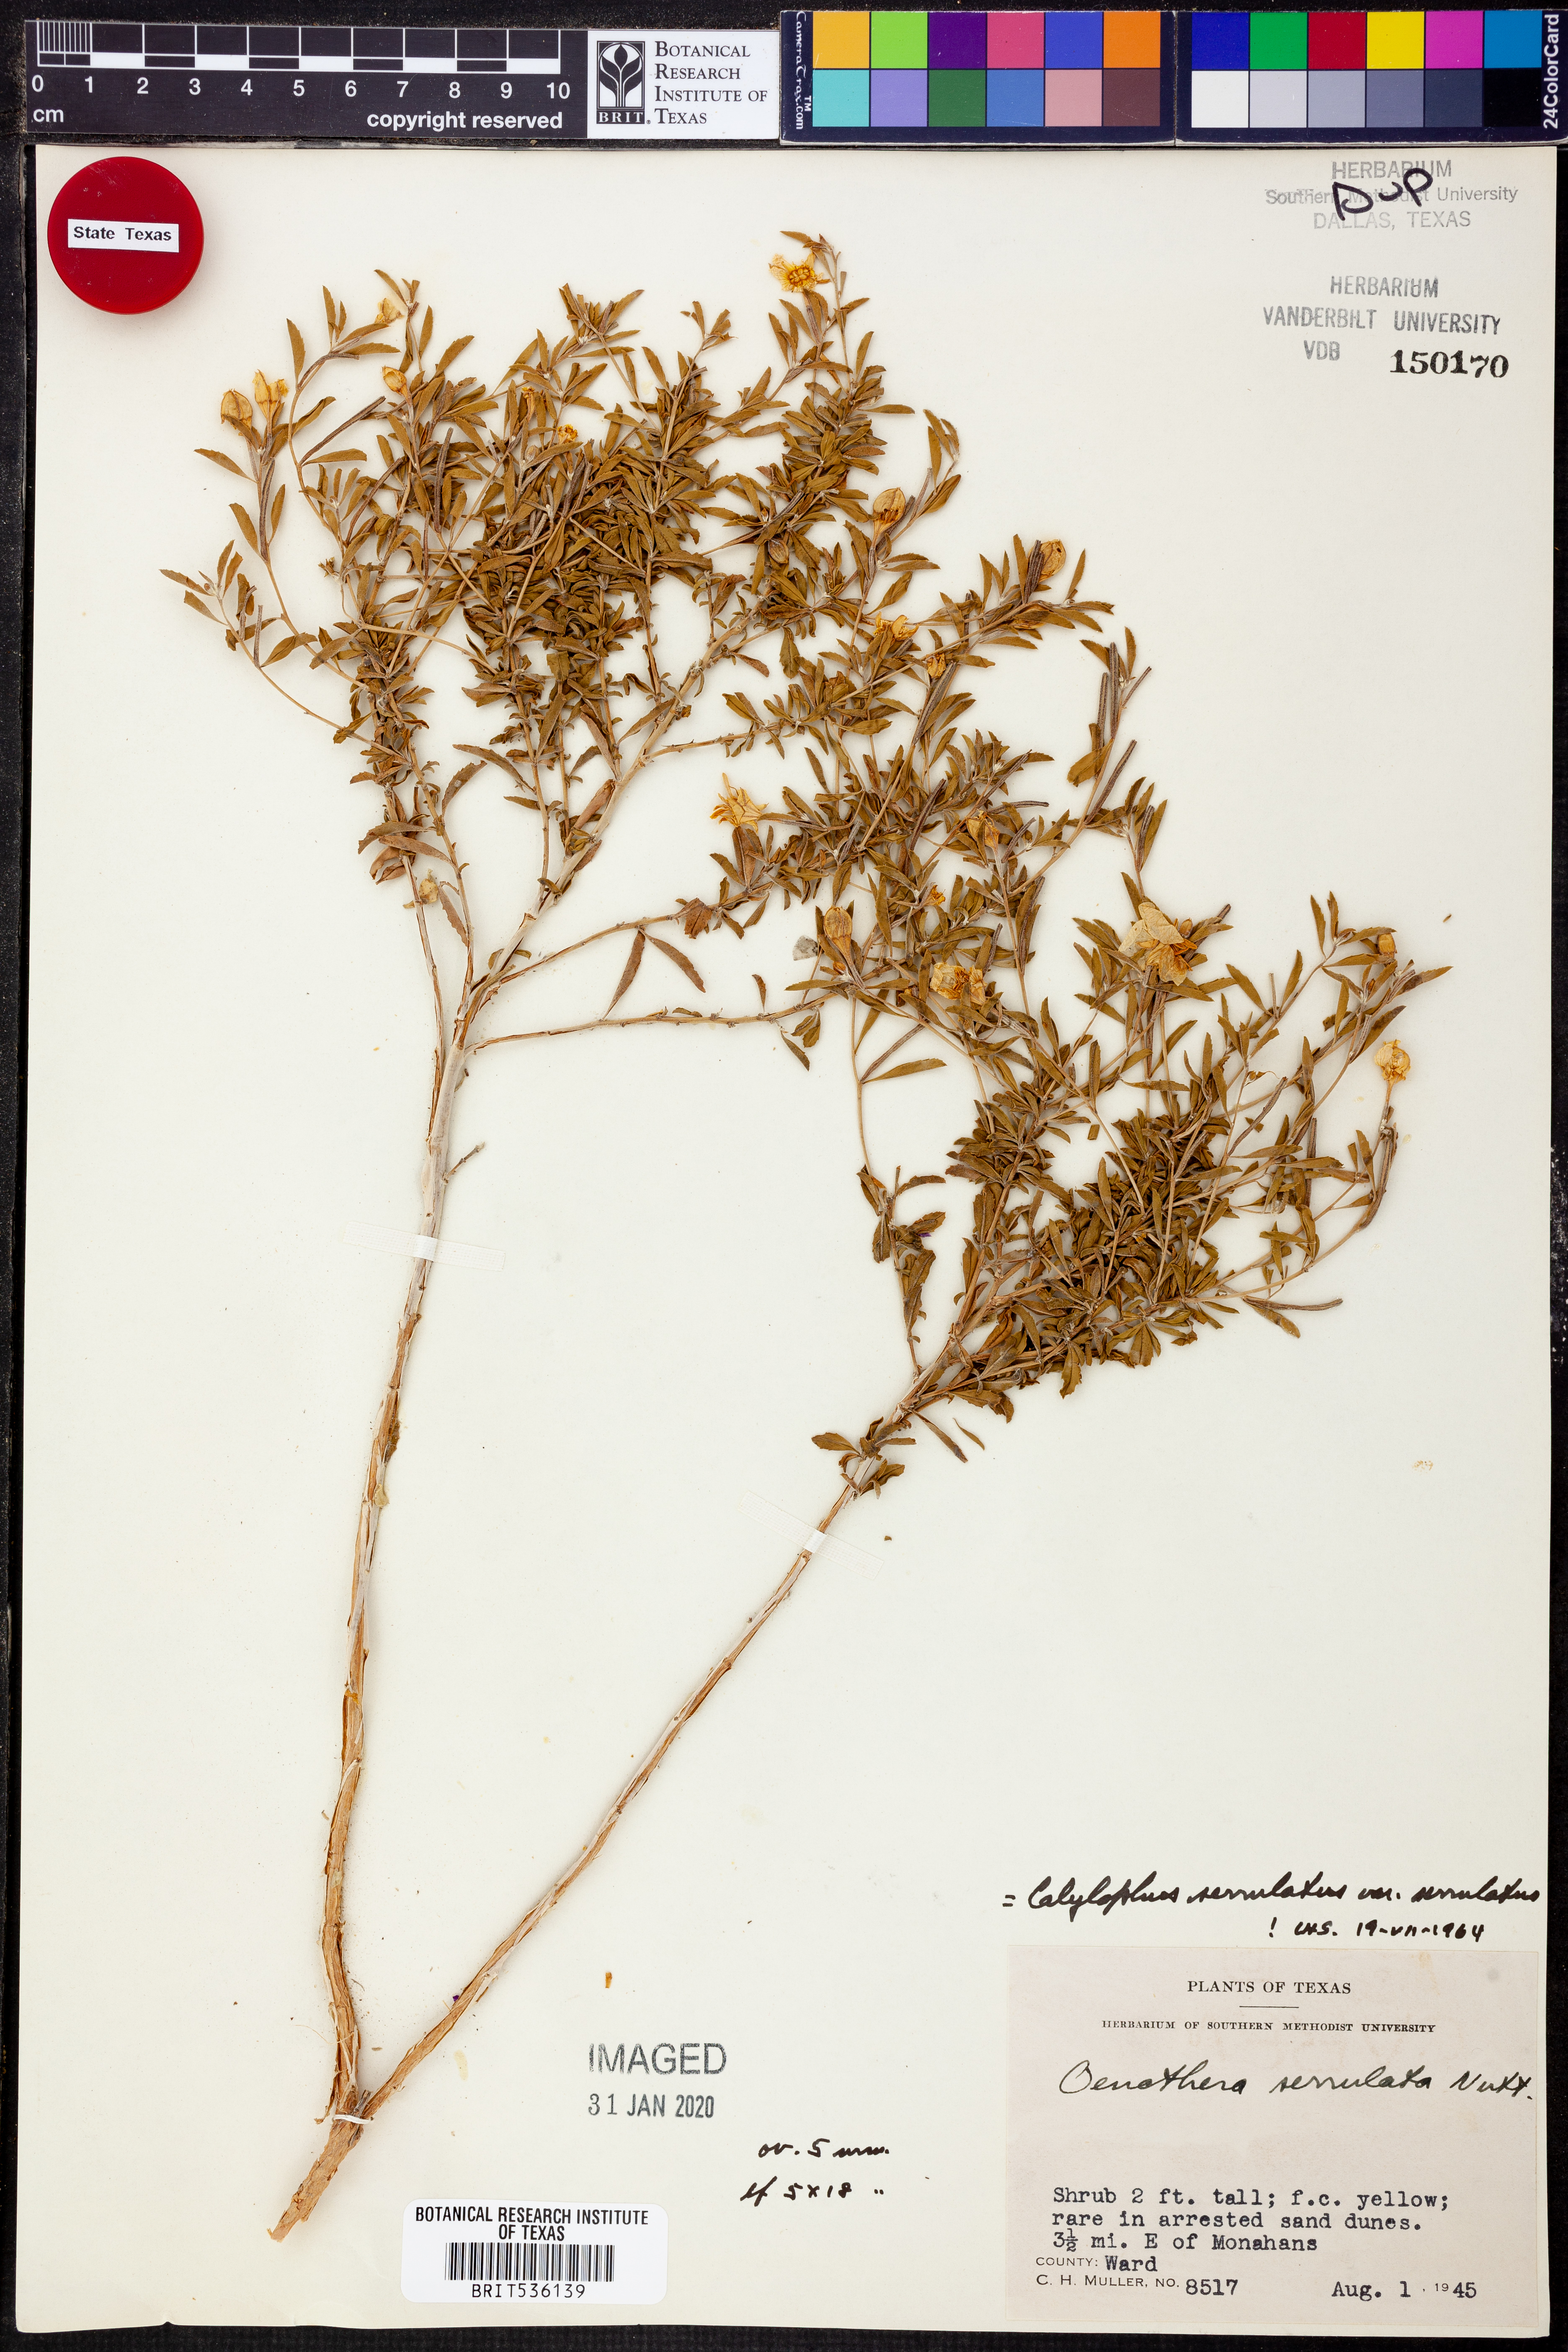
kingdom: Plantae
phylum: Tracheophyta
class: Magnoliopsida
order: Myrtales
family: Onagraceae
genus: Oenothera
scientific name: Oenothera serrulata
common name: Half-shrub calylophus
